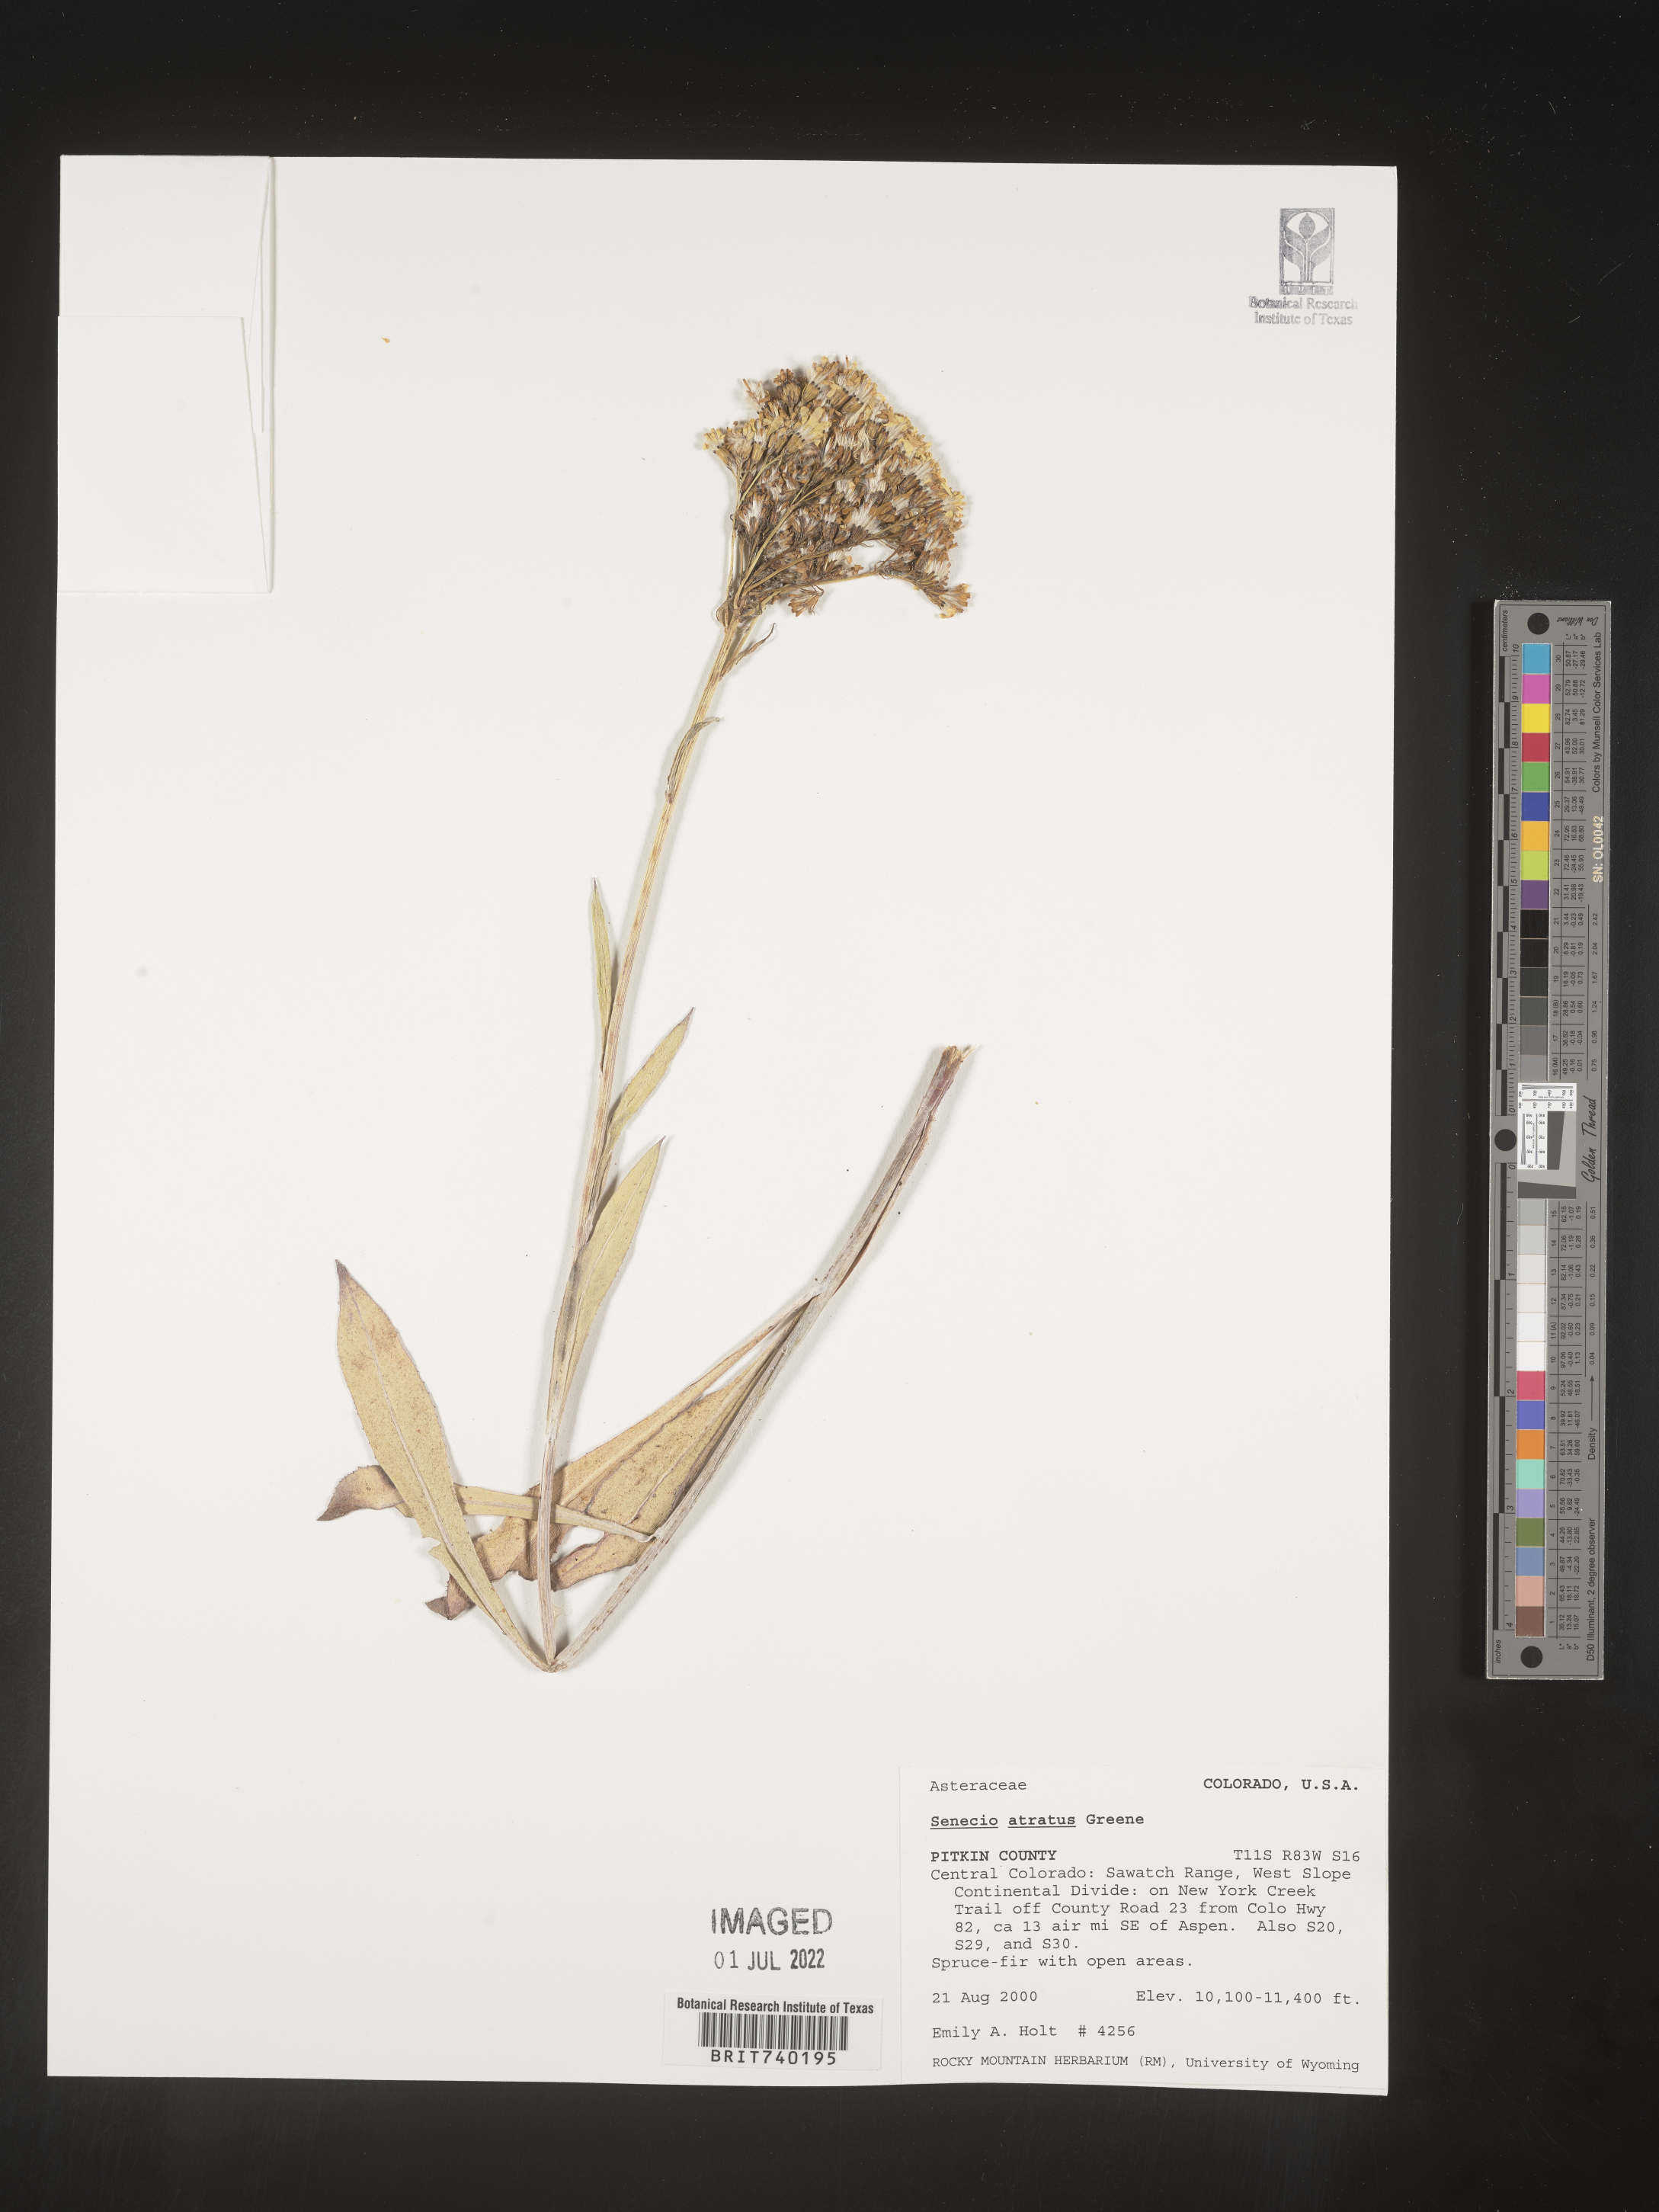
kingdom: Plantae
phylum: Tracheophyta
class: Magnoliopsida
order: Asterales
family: Asteraceae
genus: Senecio
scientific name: Senecio atratus
